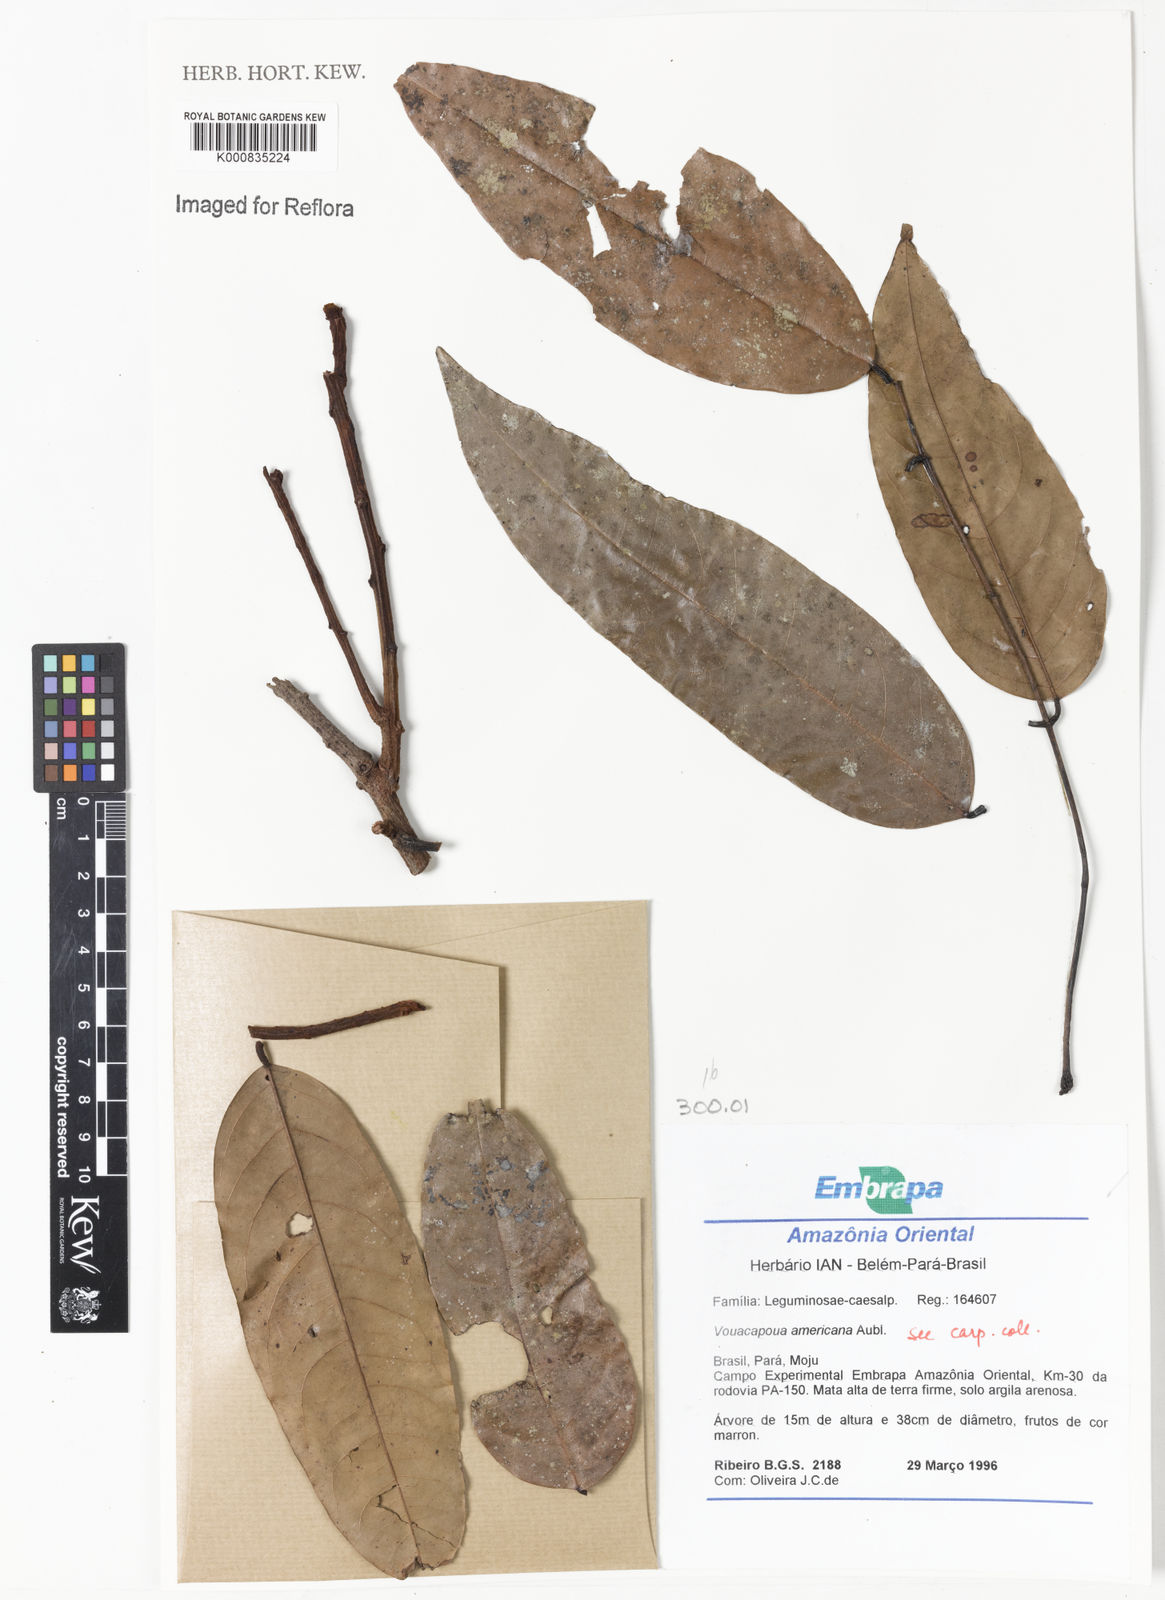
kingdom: Plantae
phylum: Tracheophyta
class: Magnoliopsida
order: Fabales
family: Fabaceae
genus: Vouacapoua
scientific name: Vouacapoua americana
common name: Partridgewood
